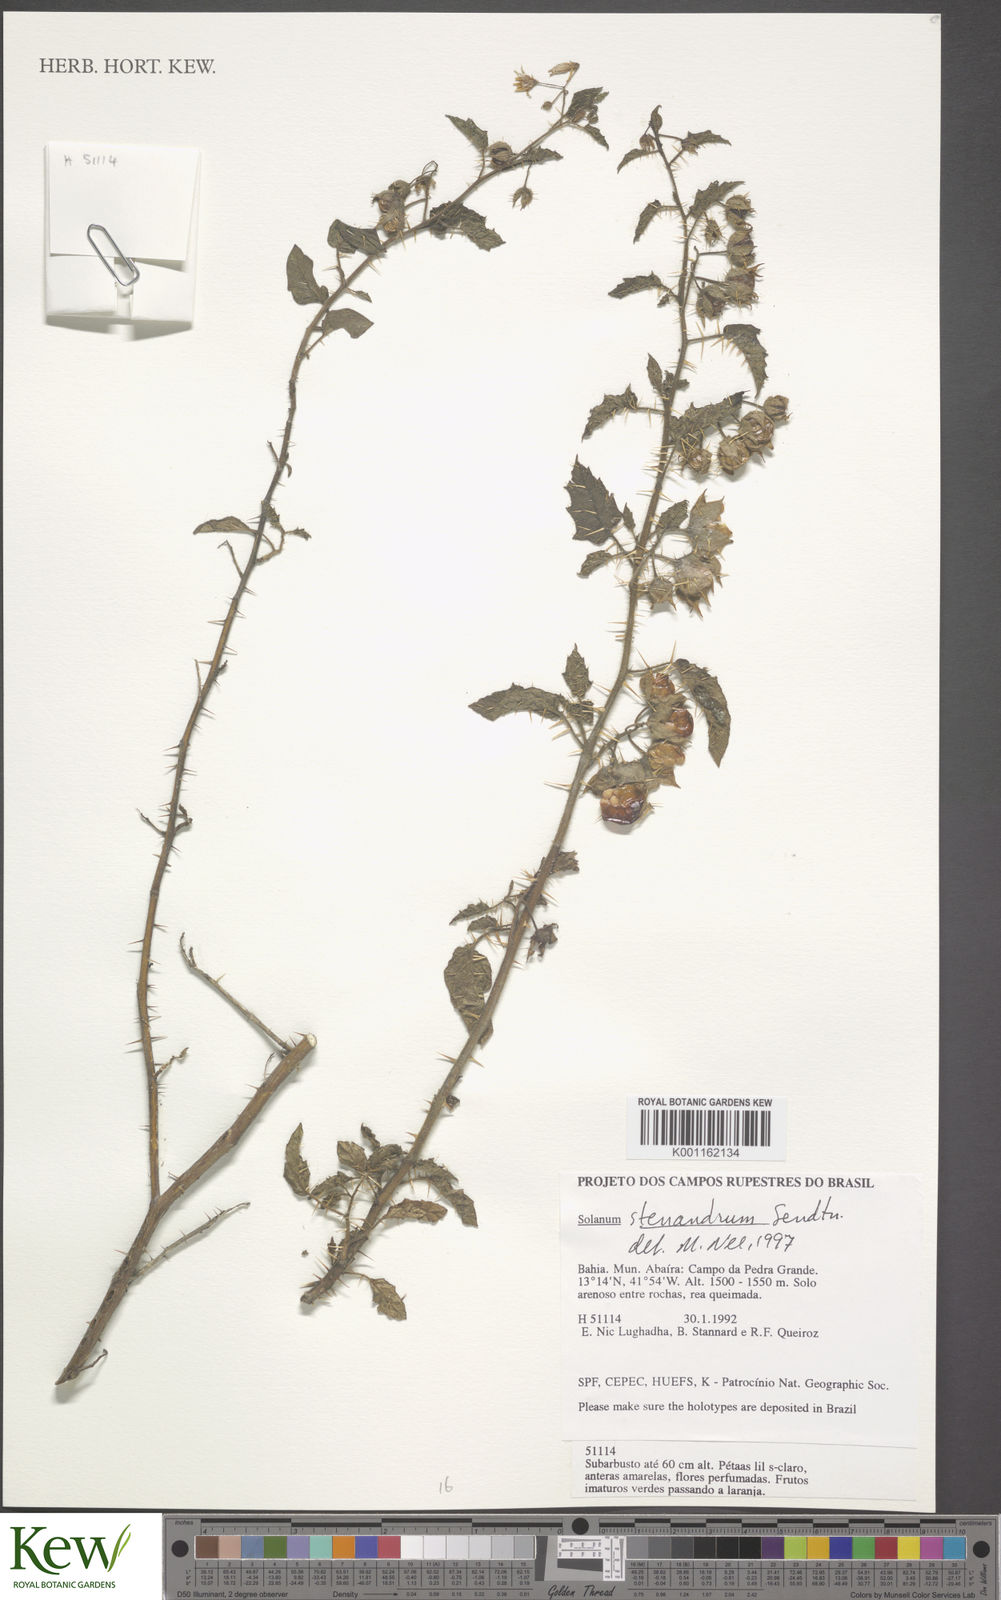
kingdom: Plantae
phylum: Tracheophyta
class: Magnoliopsida
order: Solanales
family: Solanaceae
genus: Solanum
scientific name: Solanum stenandrum
